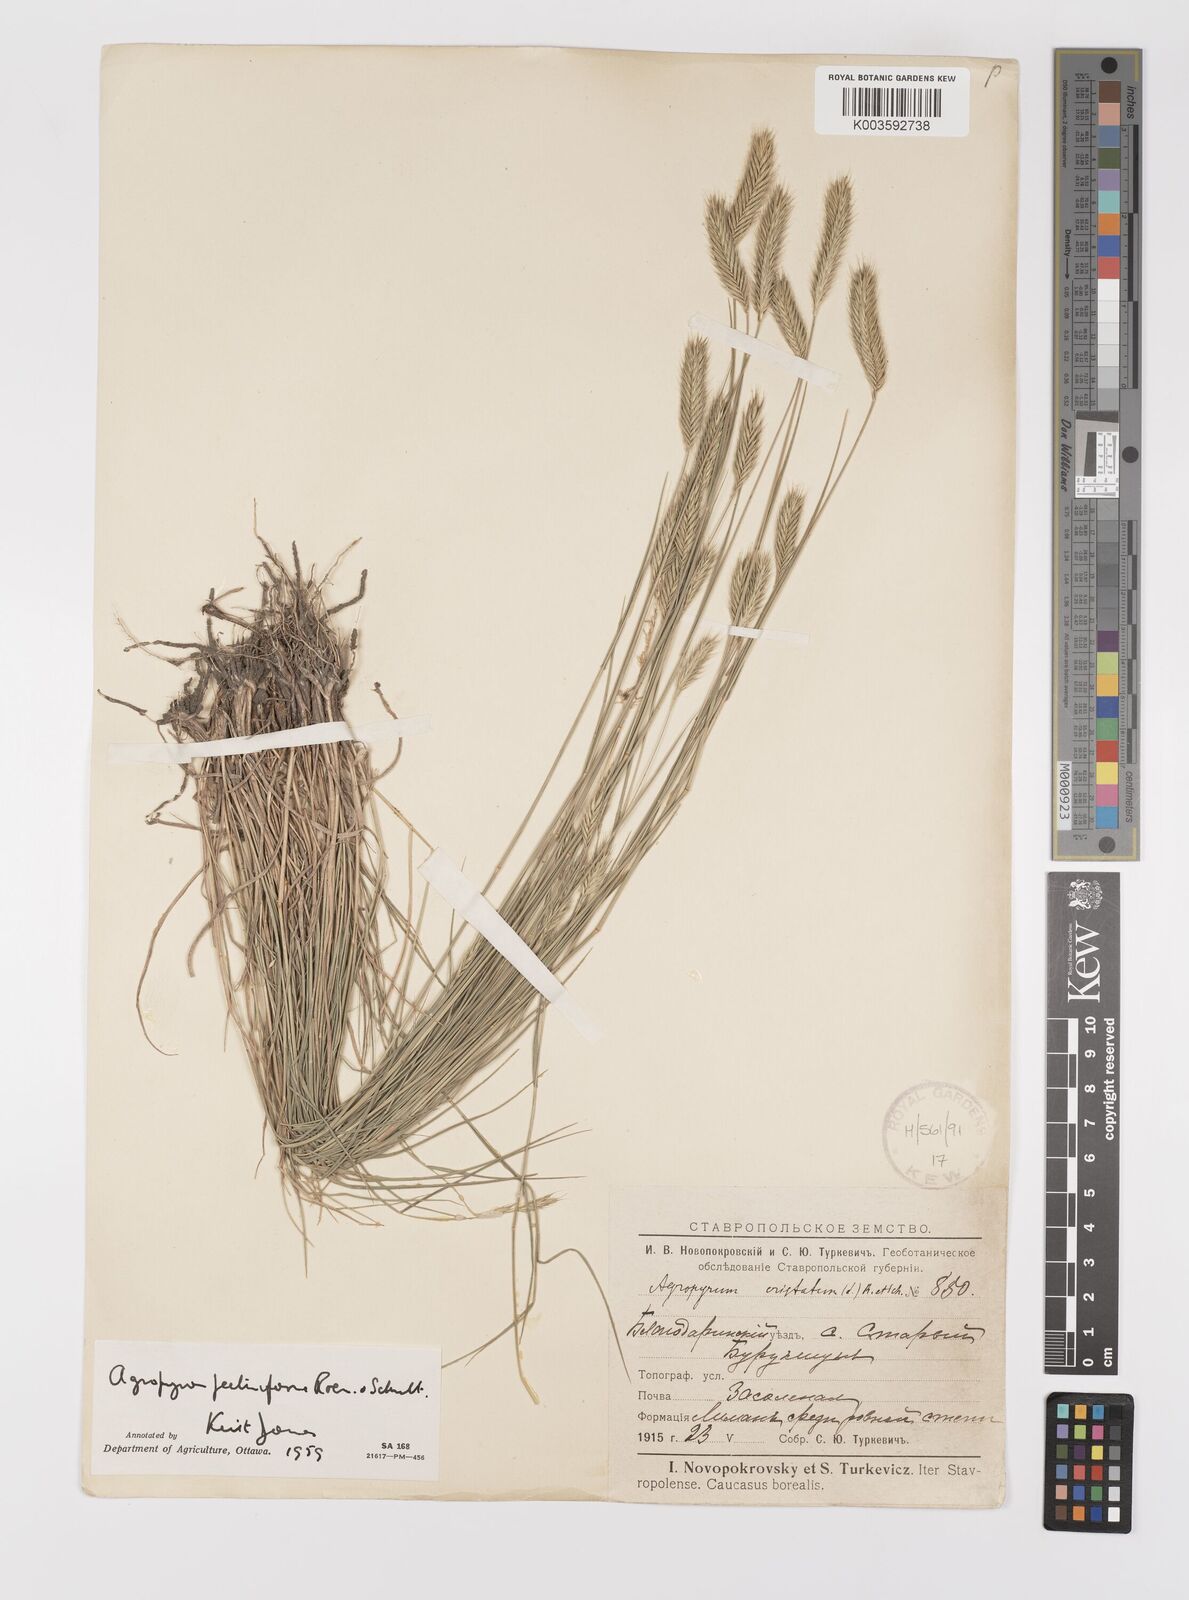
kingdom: Plantae
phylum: Tracheophyta
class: Liliopsida
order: Poales
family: Poaceae
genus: Agropyron
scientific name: Agropyron cristatum
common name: Crested wheatgrass
